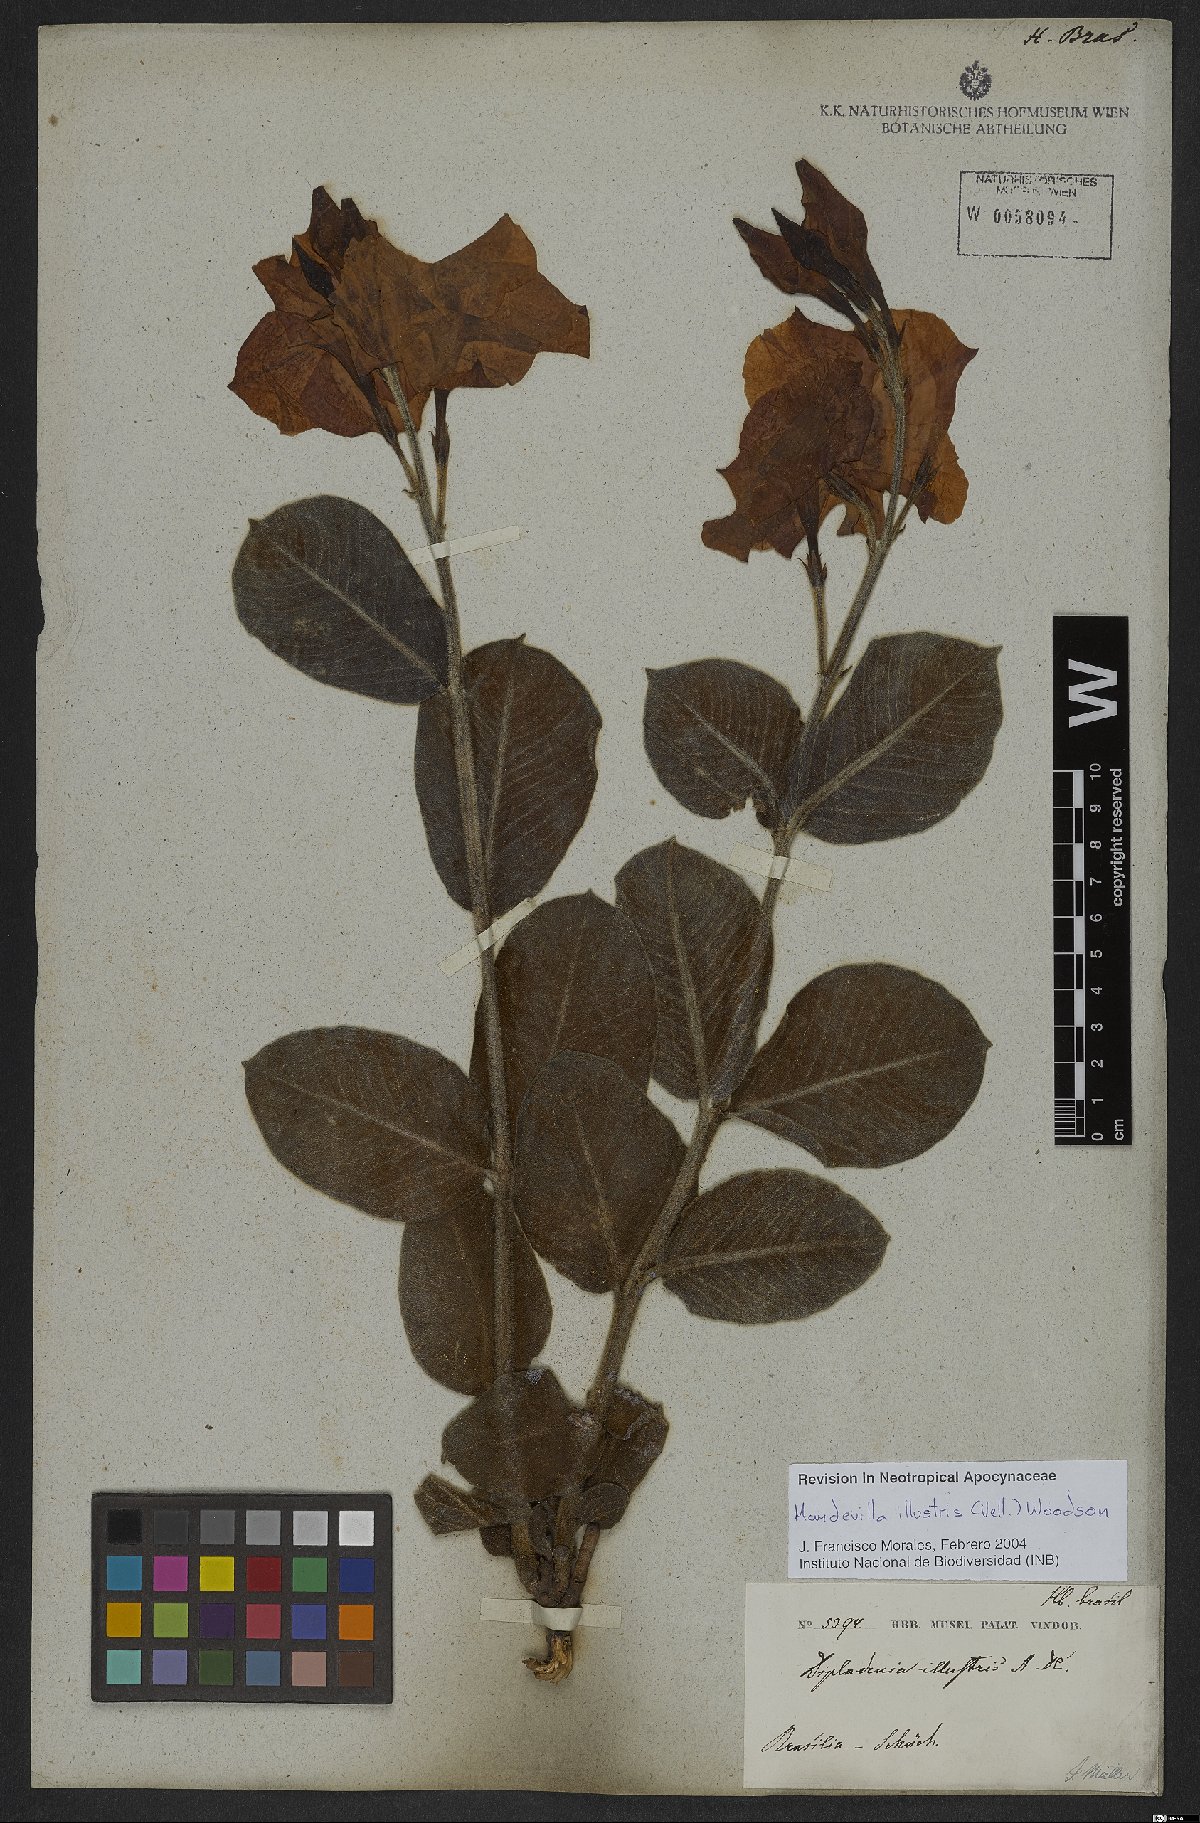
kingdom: Plantae
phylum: Tracheophyta
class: Magnoliopsida
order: Gentianales
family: Apocynaceae
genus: Mandevilla
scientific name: Mandevilla illustris
